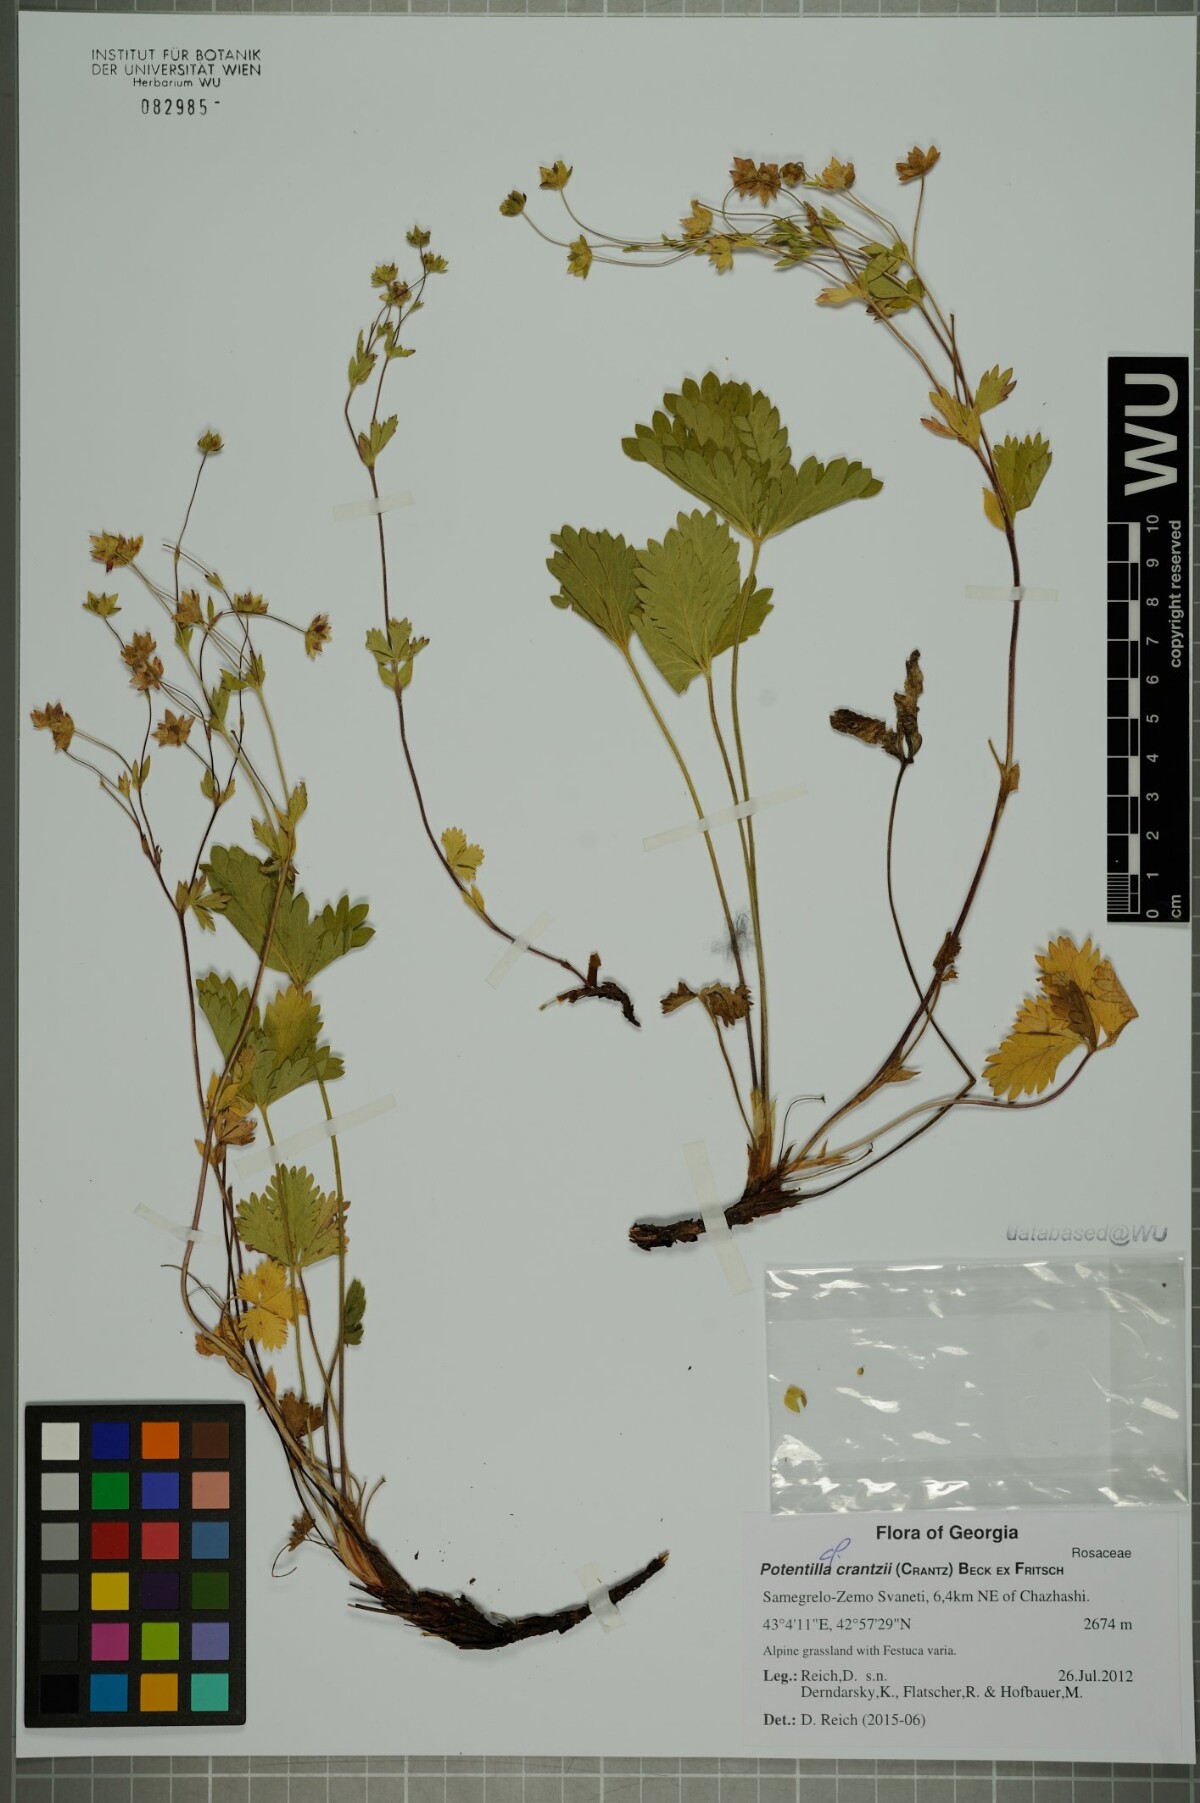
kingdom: Plantae
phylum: Tracheophyta
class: Magnoliopsida
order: Rosales
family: Rosaceae
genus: Potentilla
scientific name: Potentilla crantzii
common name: Alpine cinquefoil
